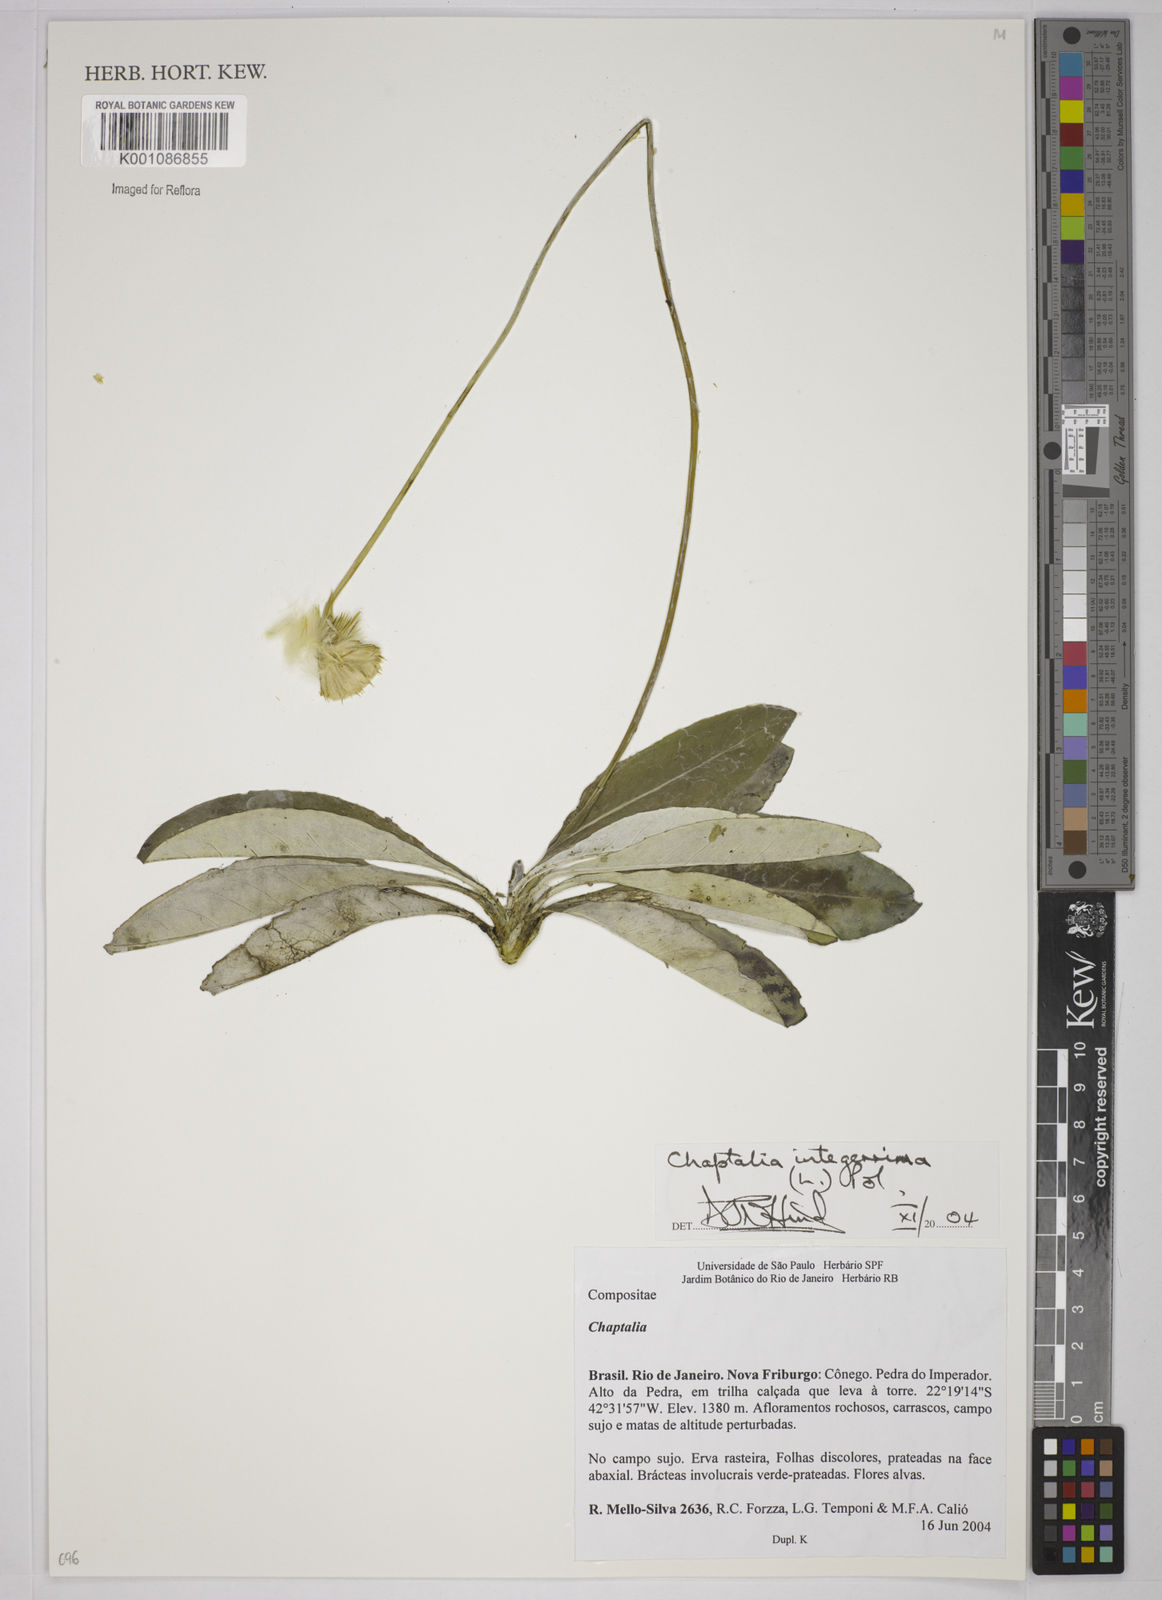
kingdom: Plantae
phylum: Tracheophyta
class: Magnoliopsida
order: Asterales
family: Asteraceae
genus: Chaptalia
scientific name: Chaptalia integerrima
